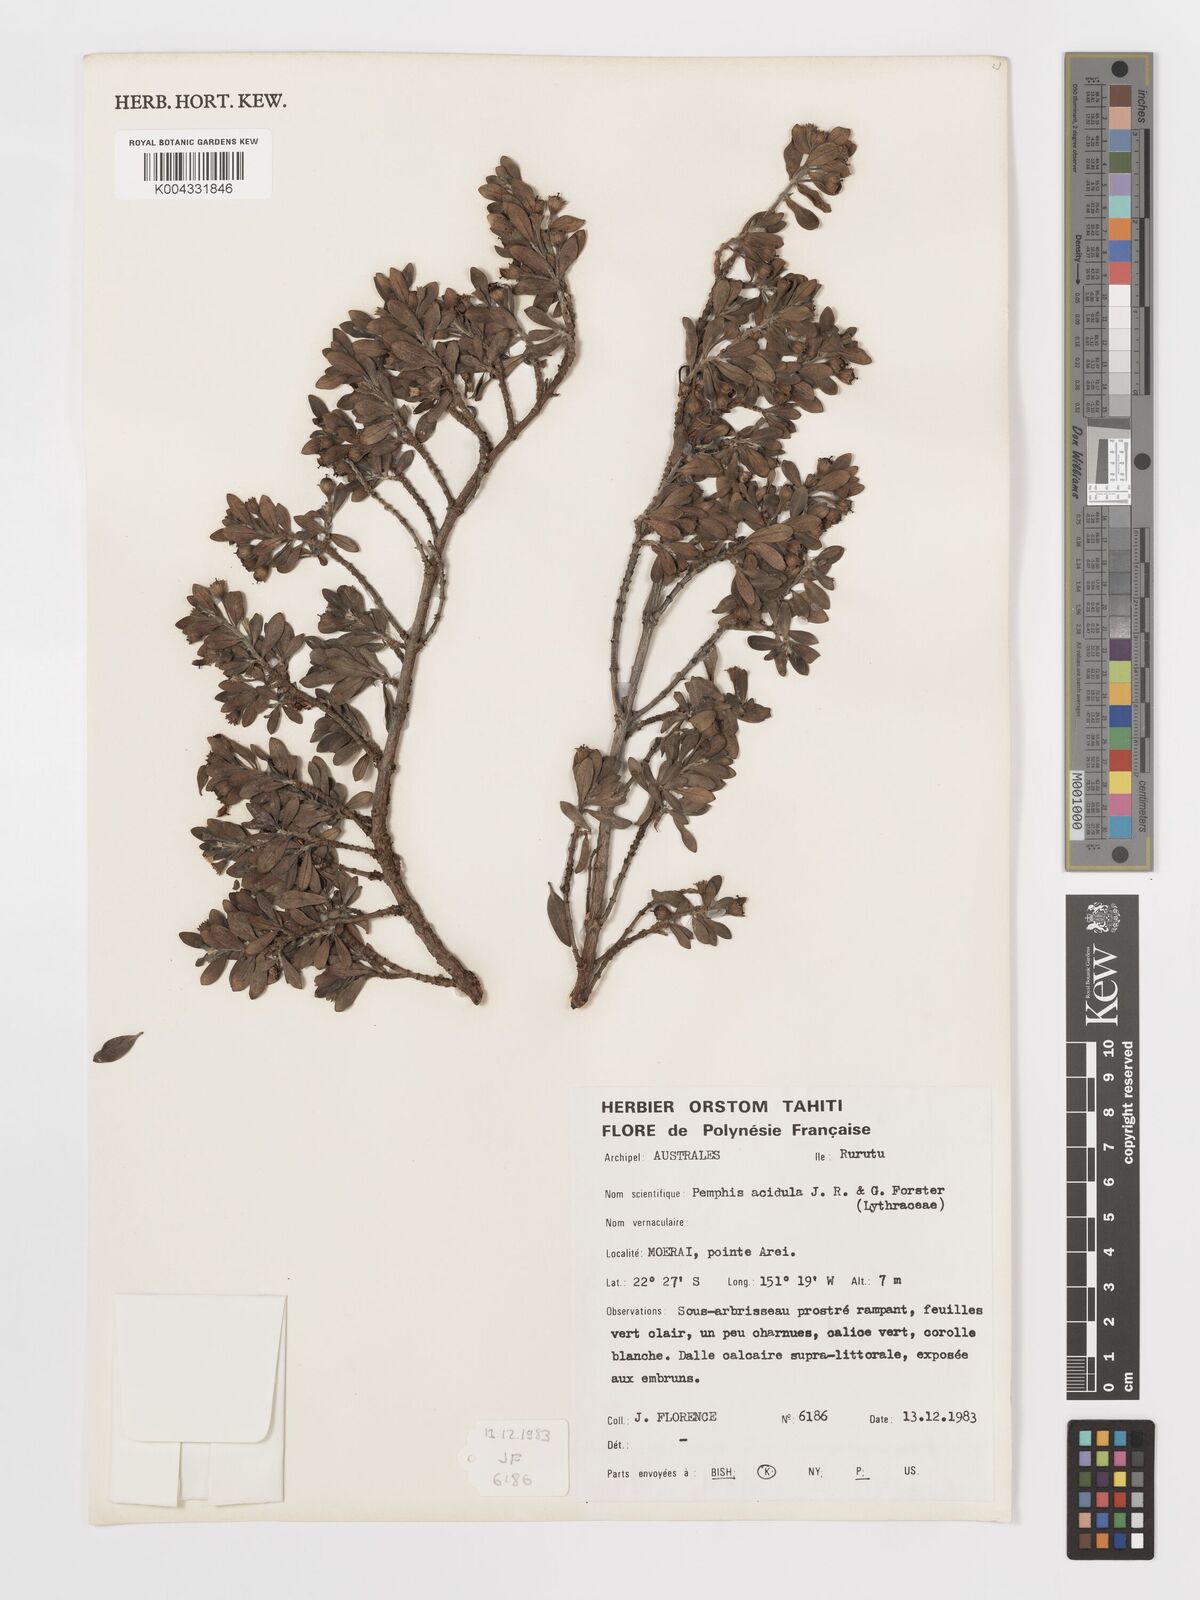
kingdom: Plantae
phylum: Tracheophyta
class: Magnoliopsida
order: Myrtales
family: Lythraceae
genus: Pemphis
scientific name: Pemphis acidula
